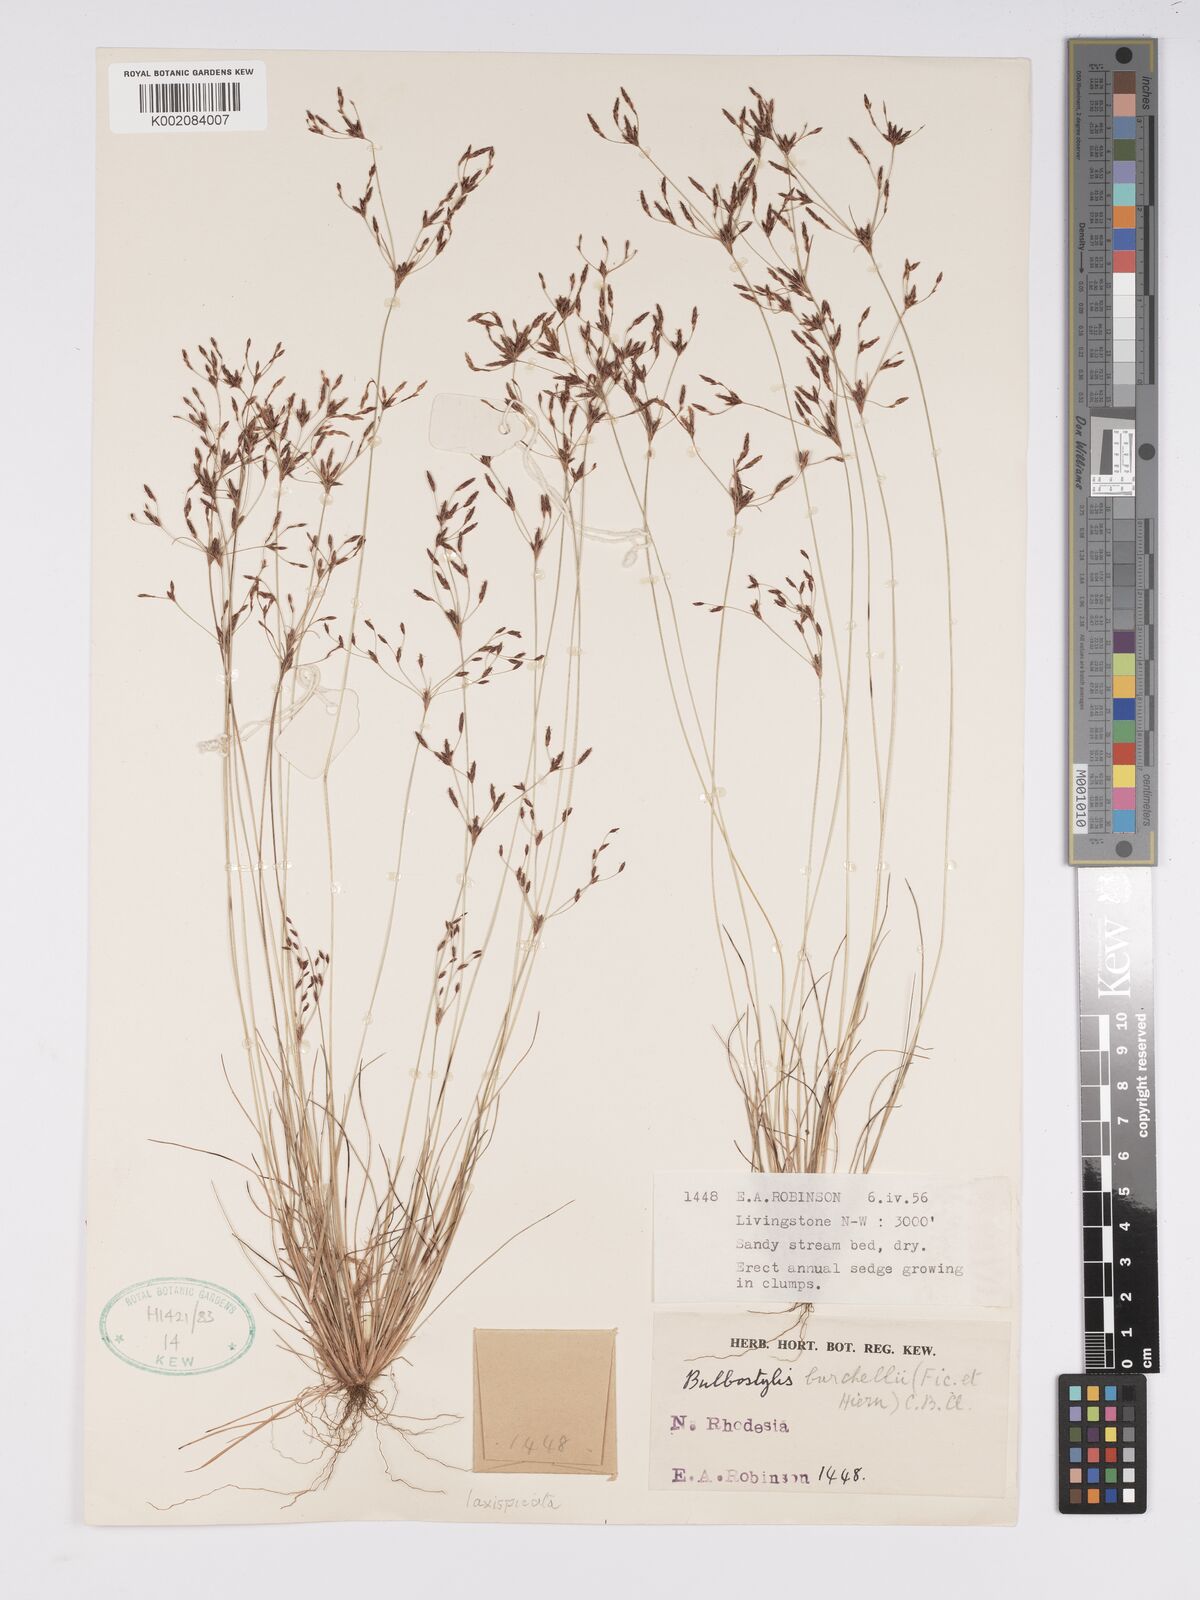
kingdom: Plantae
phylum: Tracheophyta
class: Liliopsida
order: Poales
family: Cyperaceae
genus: Bulbostylis
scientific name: Bulbostylis laxispicata
